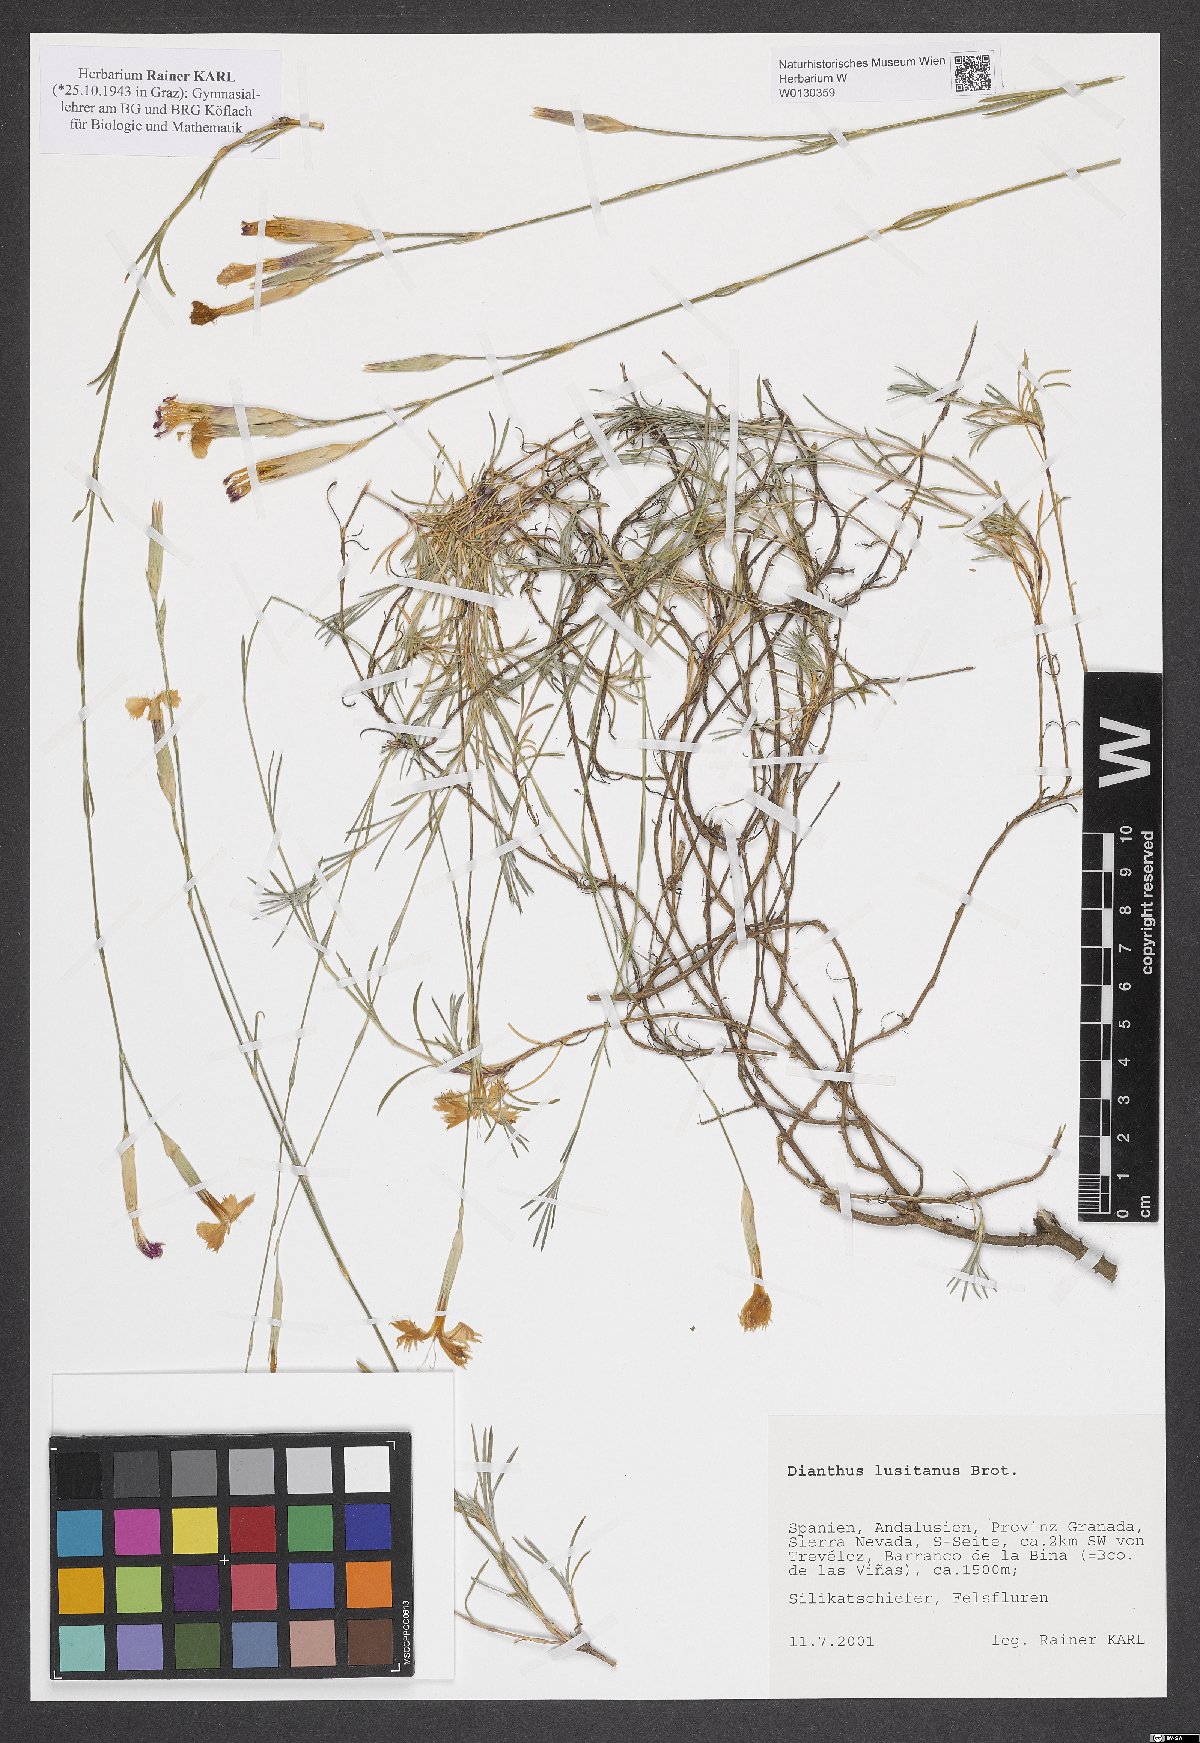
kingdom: Plantae
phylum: Tracheophyta
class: Magnoliopsida
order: Caryophyllales
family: Caryophyllaceae
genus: Dianthus
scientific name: Dianthus lusitanus
